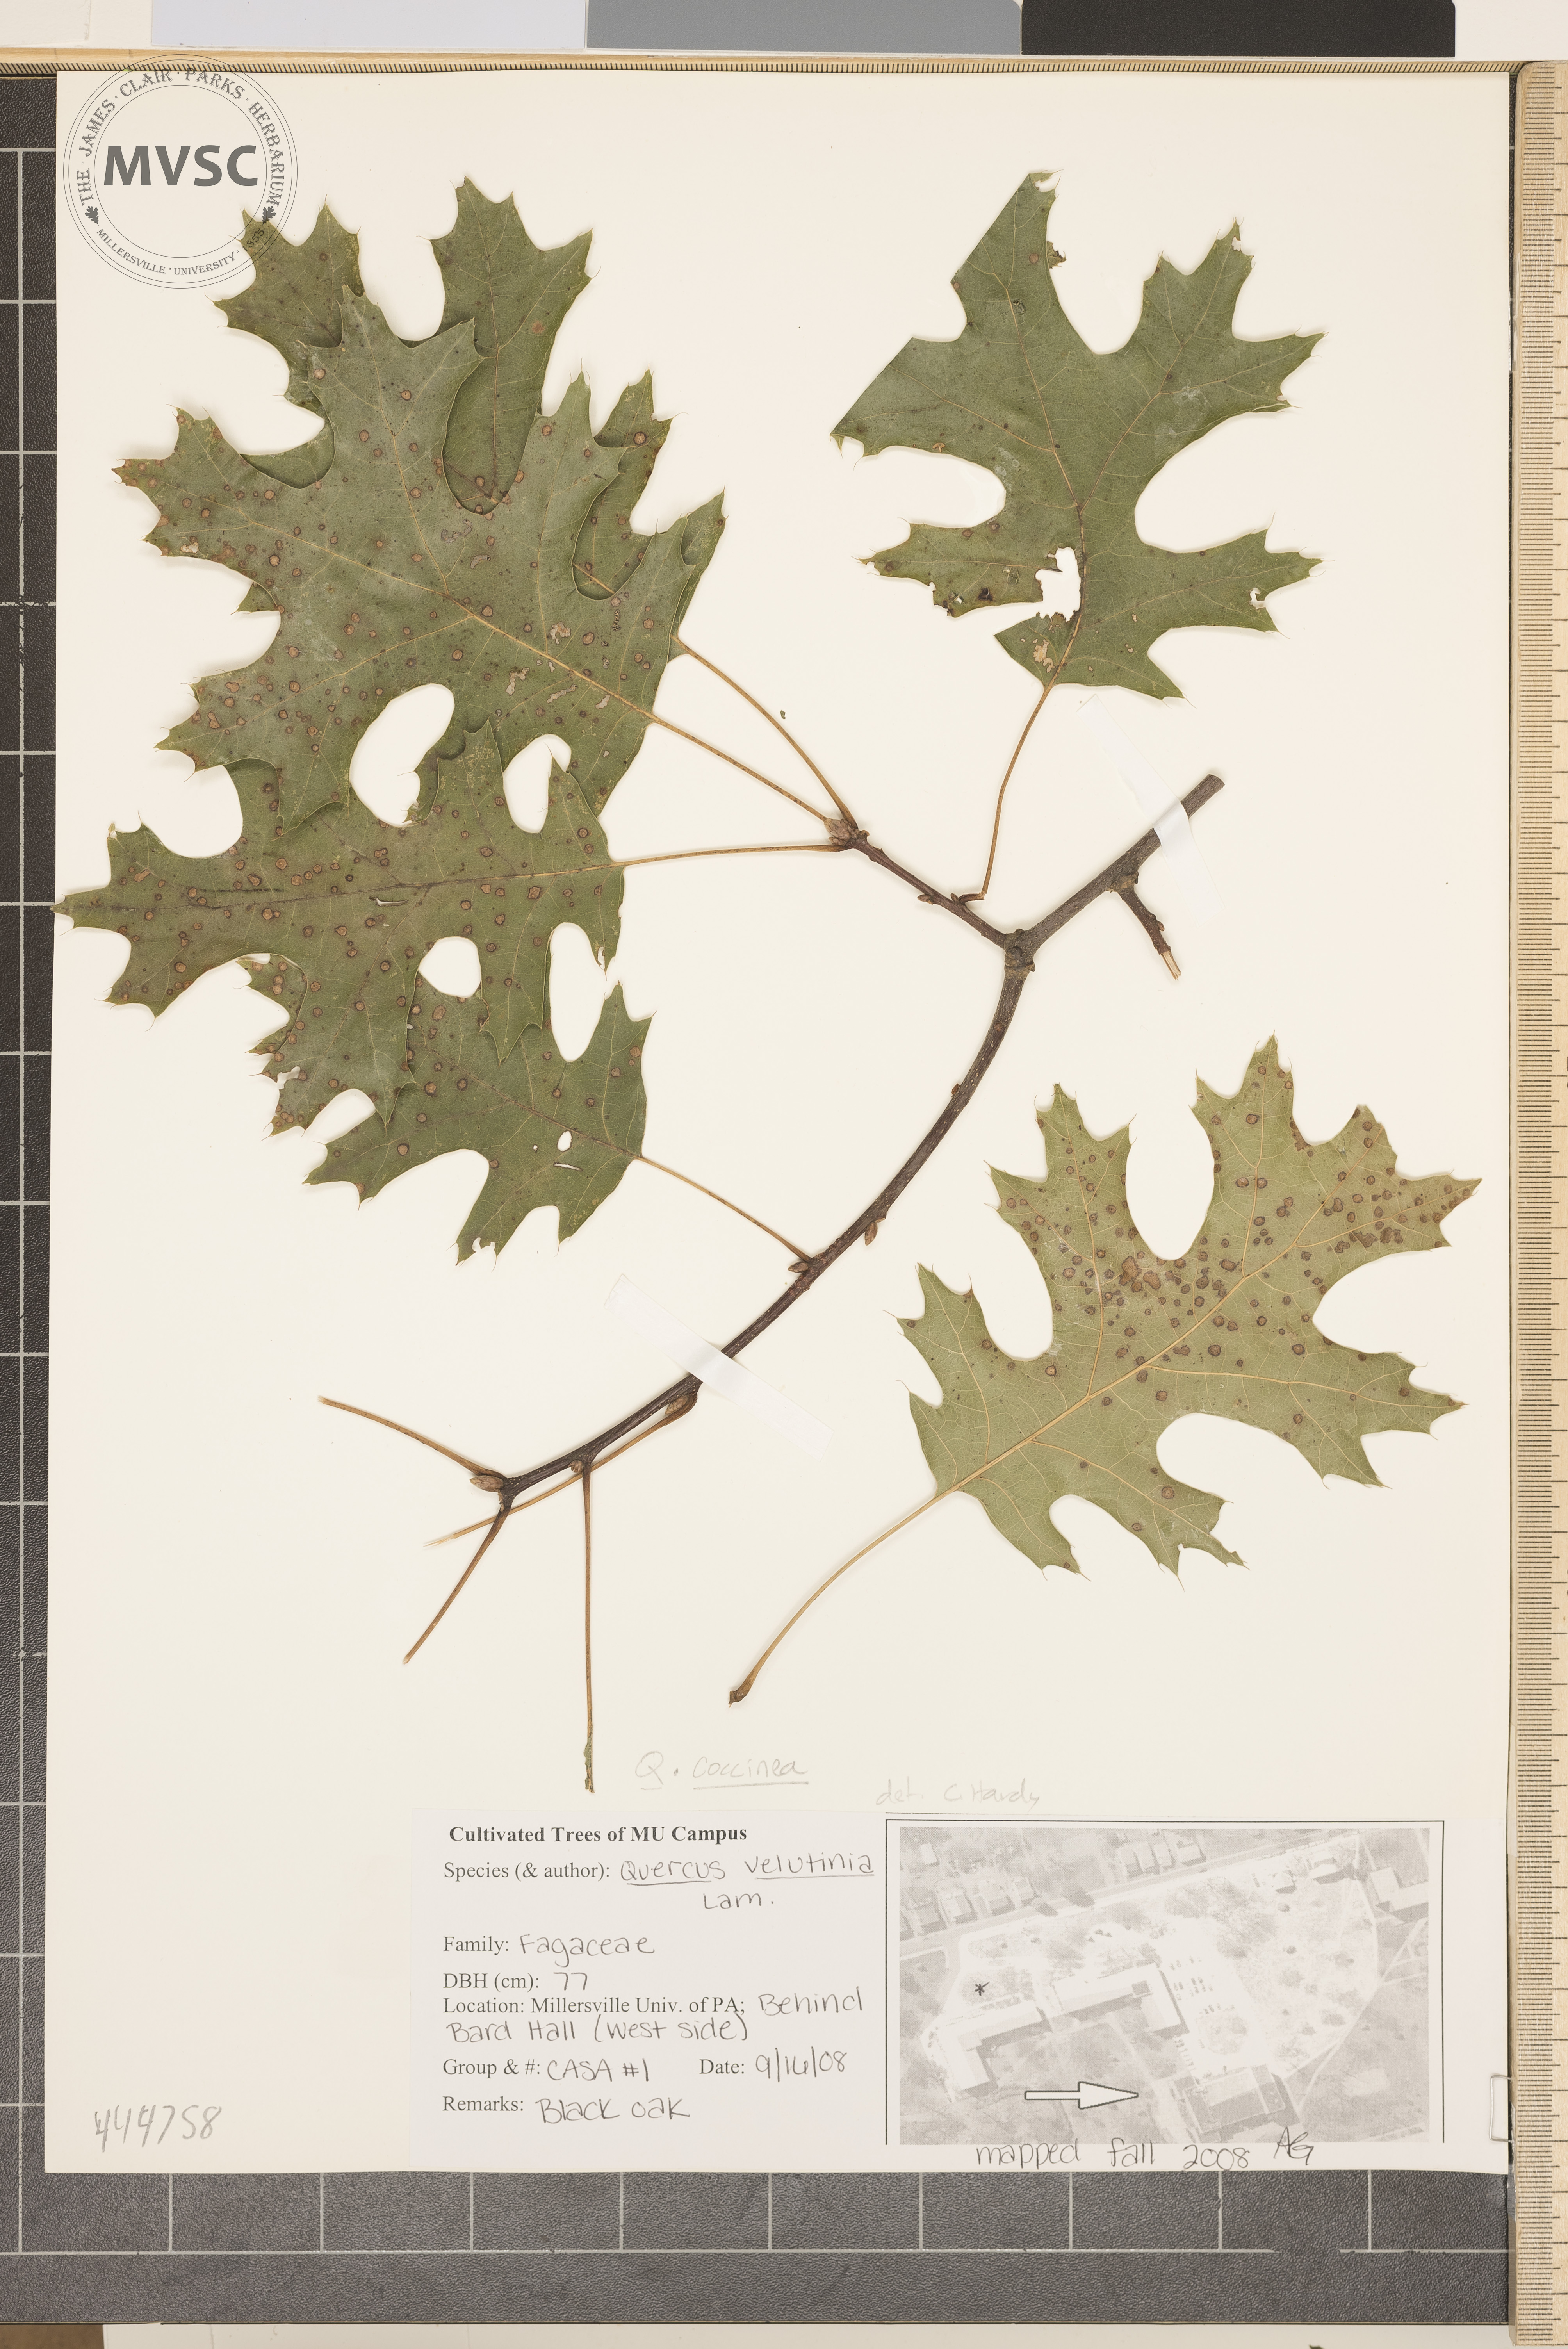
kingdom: Plantae
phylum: Tracheophyta
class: Magnoliopsida
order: Fagales
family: Fagaceae
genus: Quercus
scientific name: Quercus coccinea
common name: Scarlet oak
